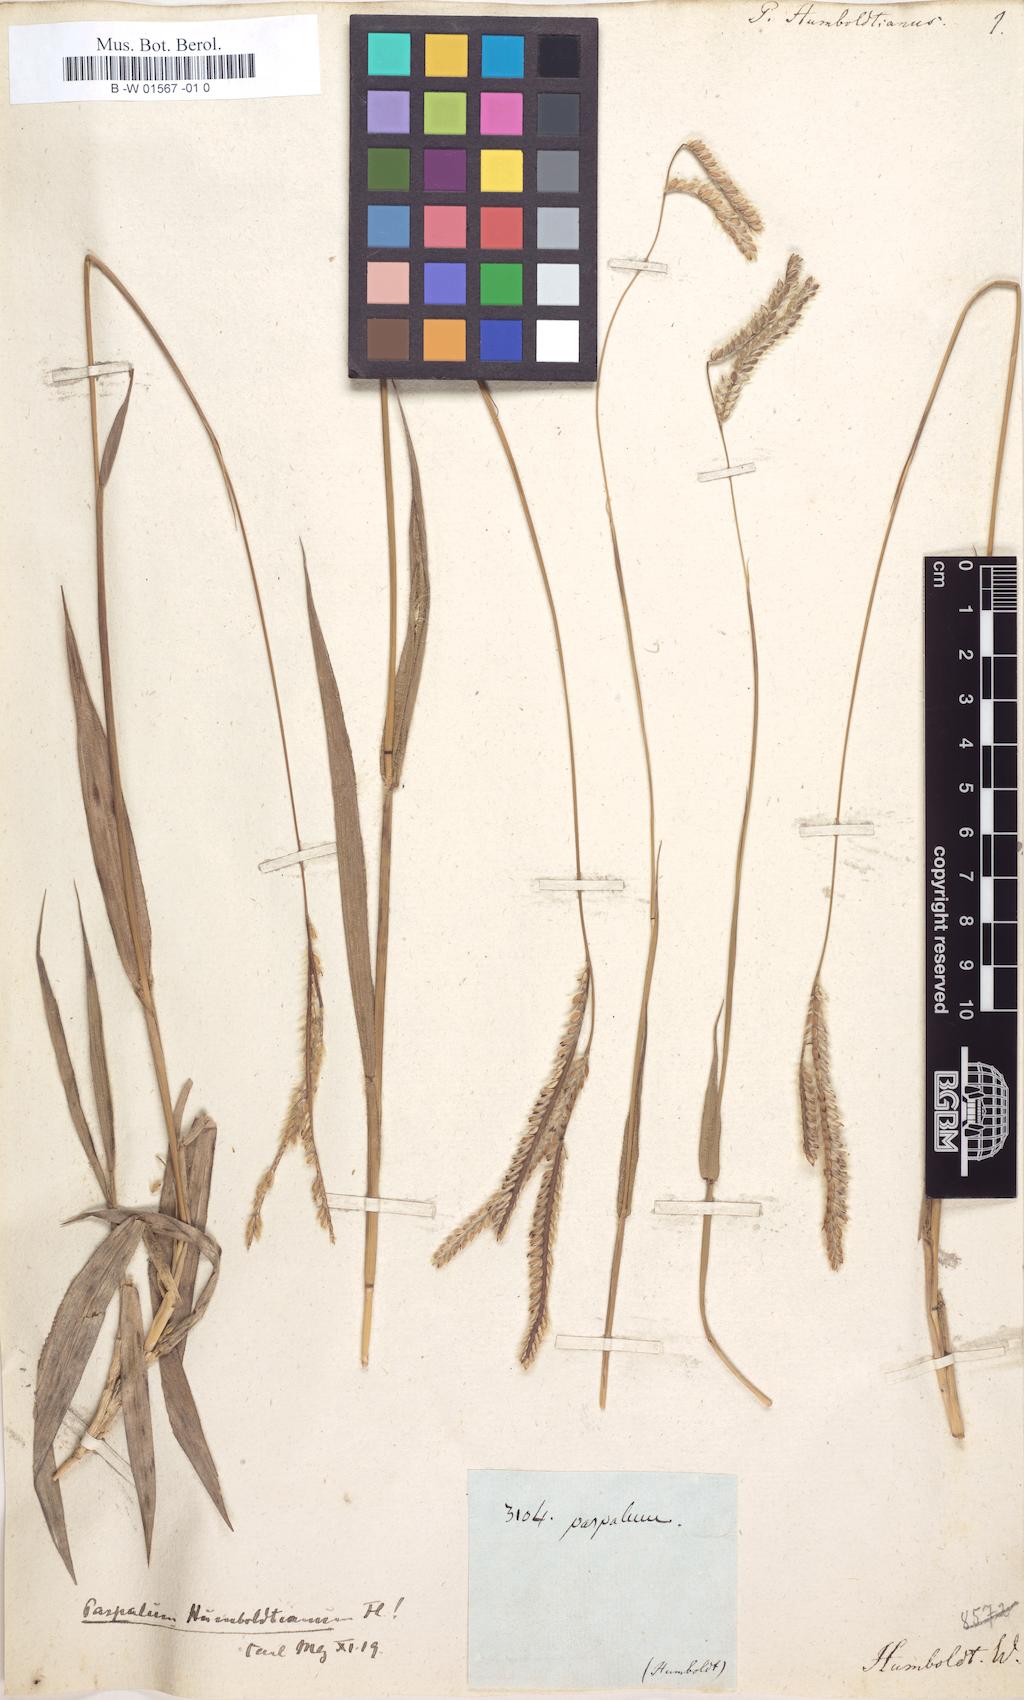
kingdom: Plantae
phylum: Tracheophyta
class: Liliopsida
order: Poales
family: Poaceae
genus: Paspalum
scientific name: Paspalum humboldtianum
